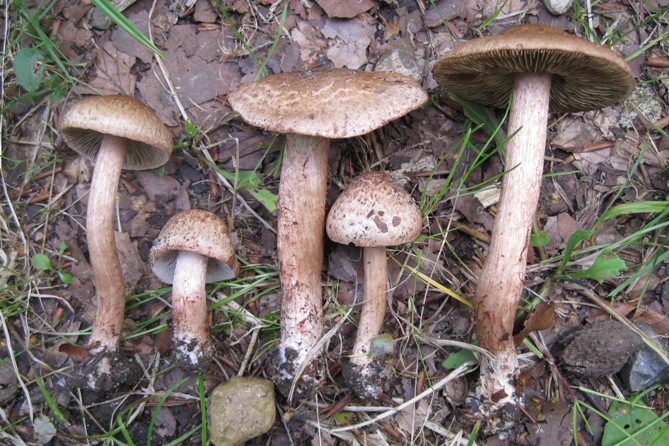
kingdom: Fungi
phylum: Basidiomycota
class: Agaricomycetes
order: Agaricales
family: Inocybaceae
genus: Inosperma
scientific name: Inosperma bongardii
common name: Bongards trævlhat
